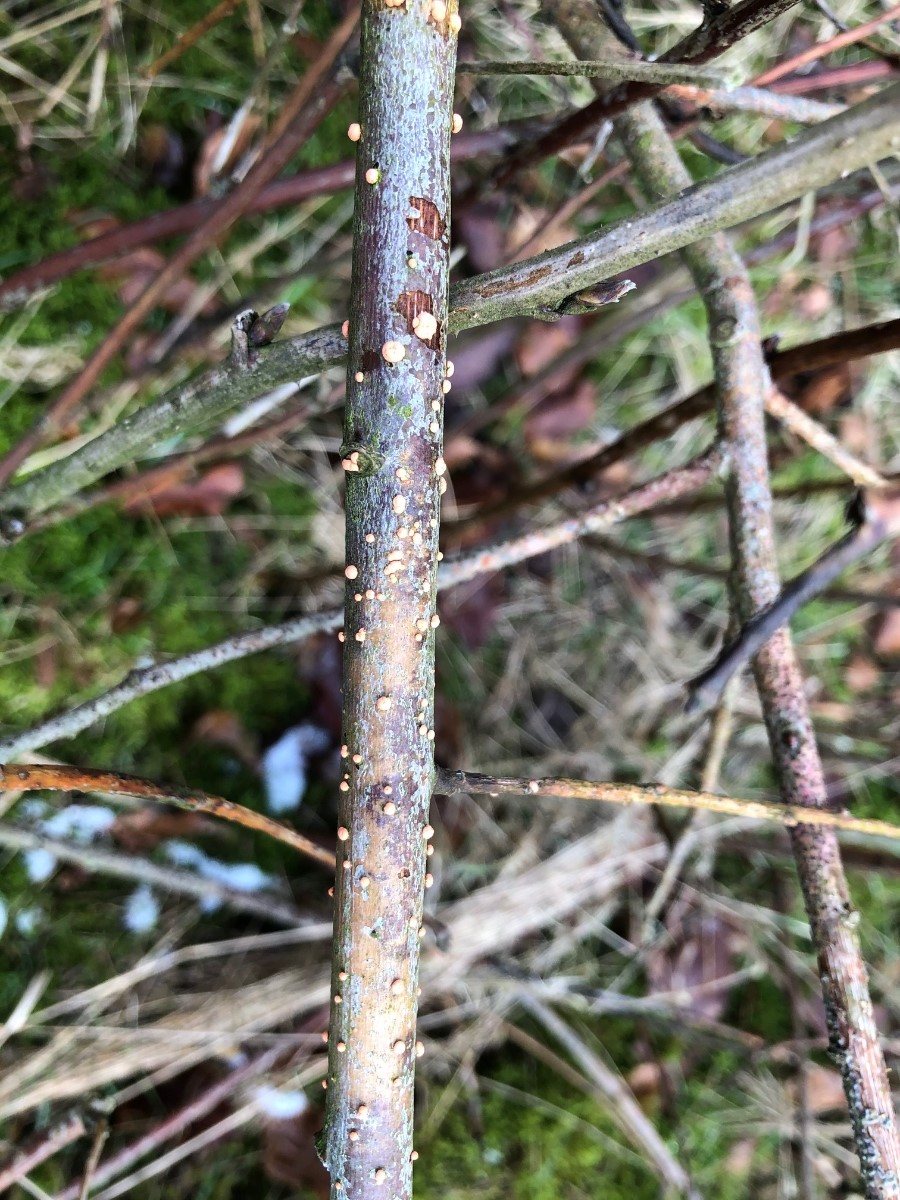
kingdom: Fungi
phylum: Ascomycota
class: Sordariomycetes
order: Hypocreales
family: Nectriaceae
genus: Nectria
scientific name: Nectria cinnabarina
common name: almindelig cinnobersvamp
